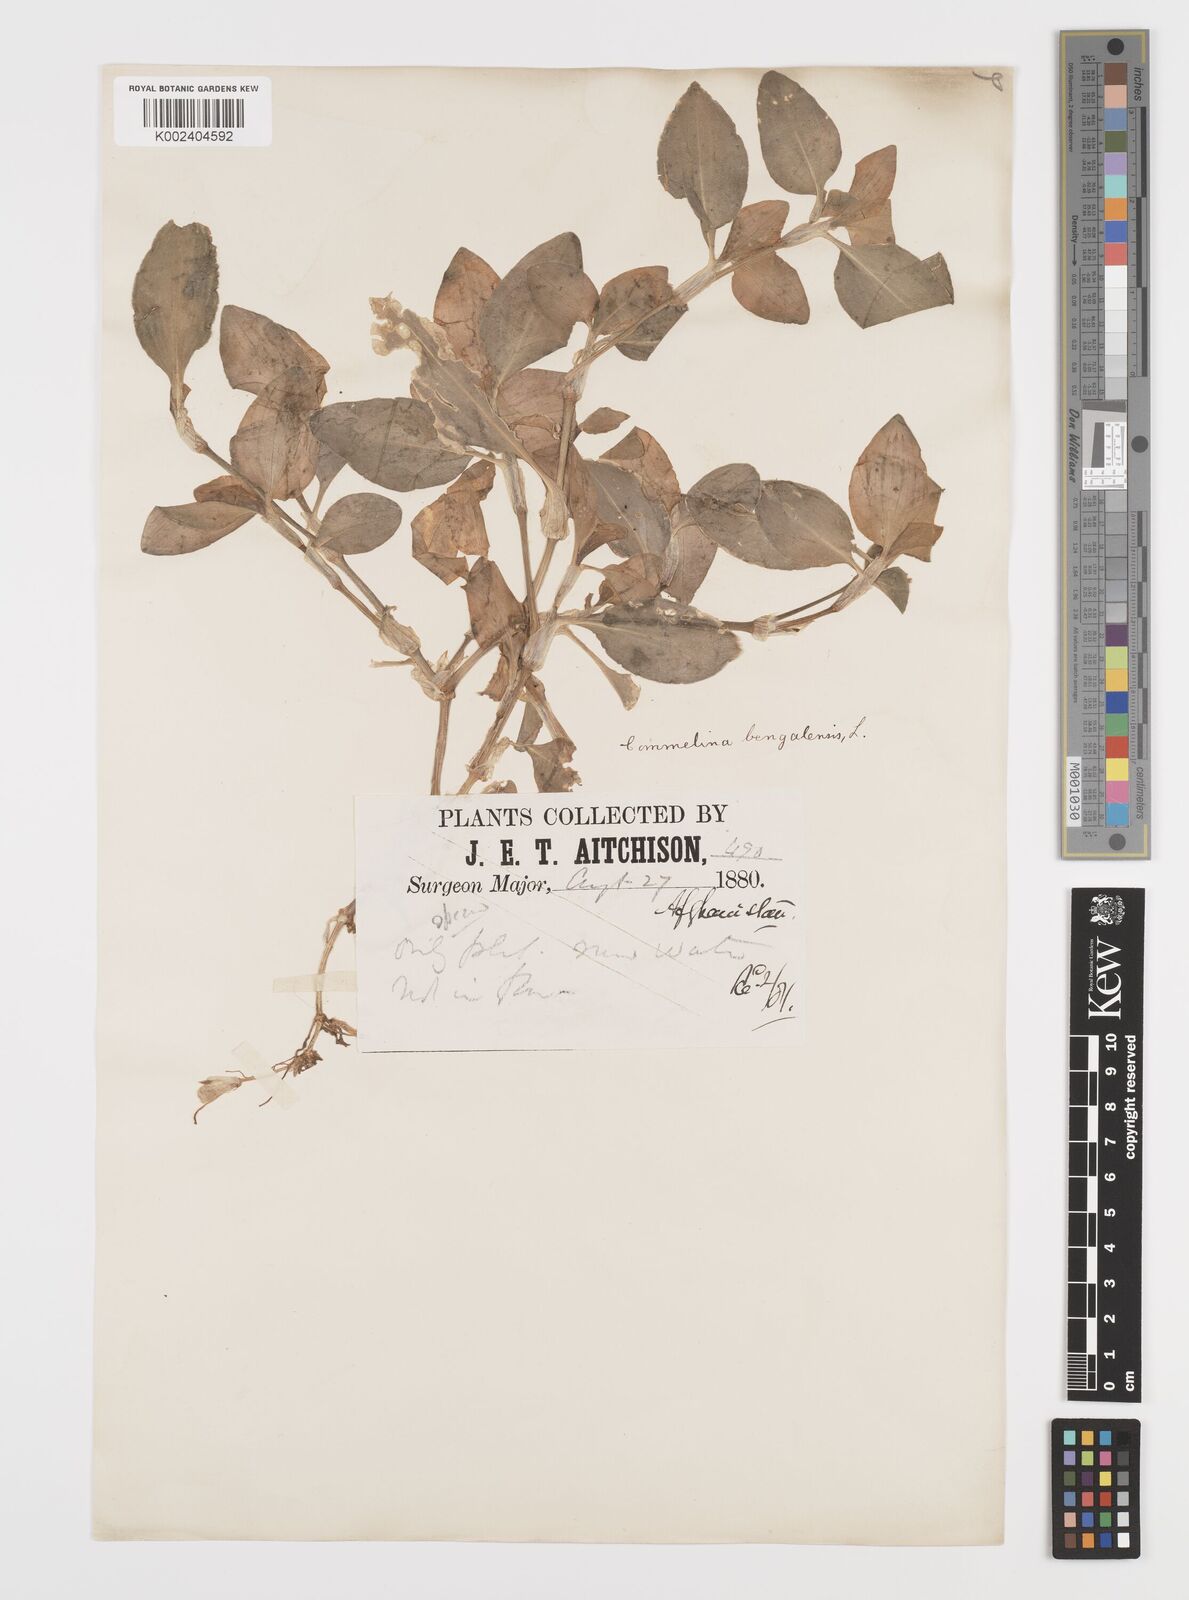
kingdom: Plantae
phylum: Tracheophyta
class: Liliopsida
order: Commelinales
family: Commelinaceae
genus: Commelina
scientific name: Commelina benghalensis
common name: Jio
